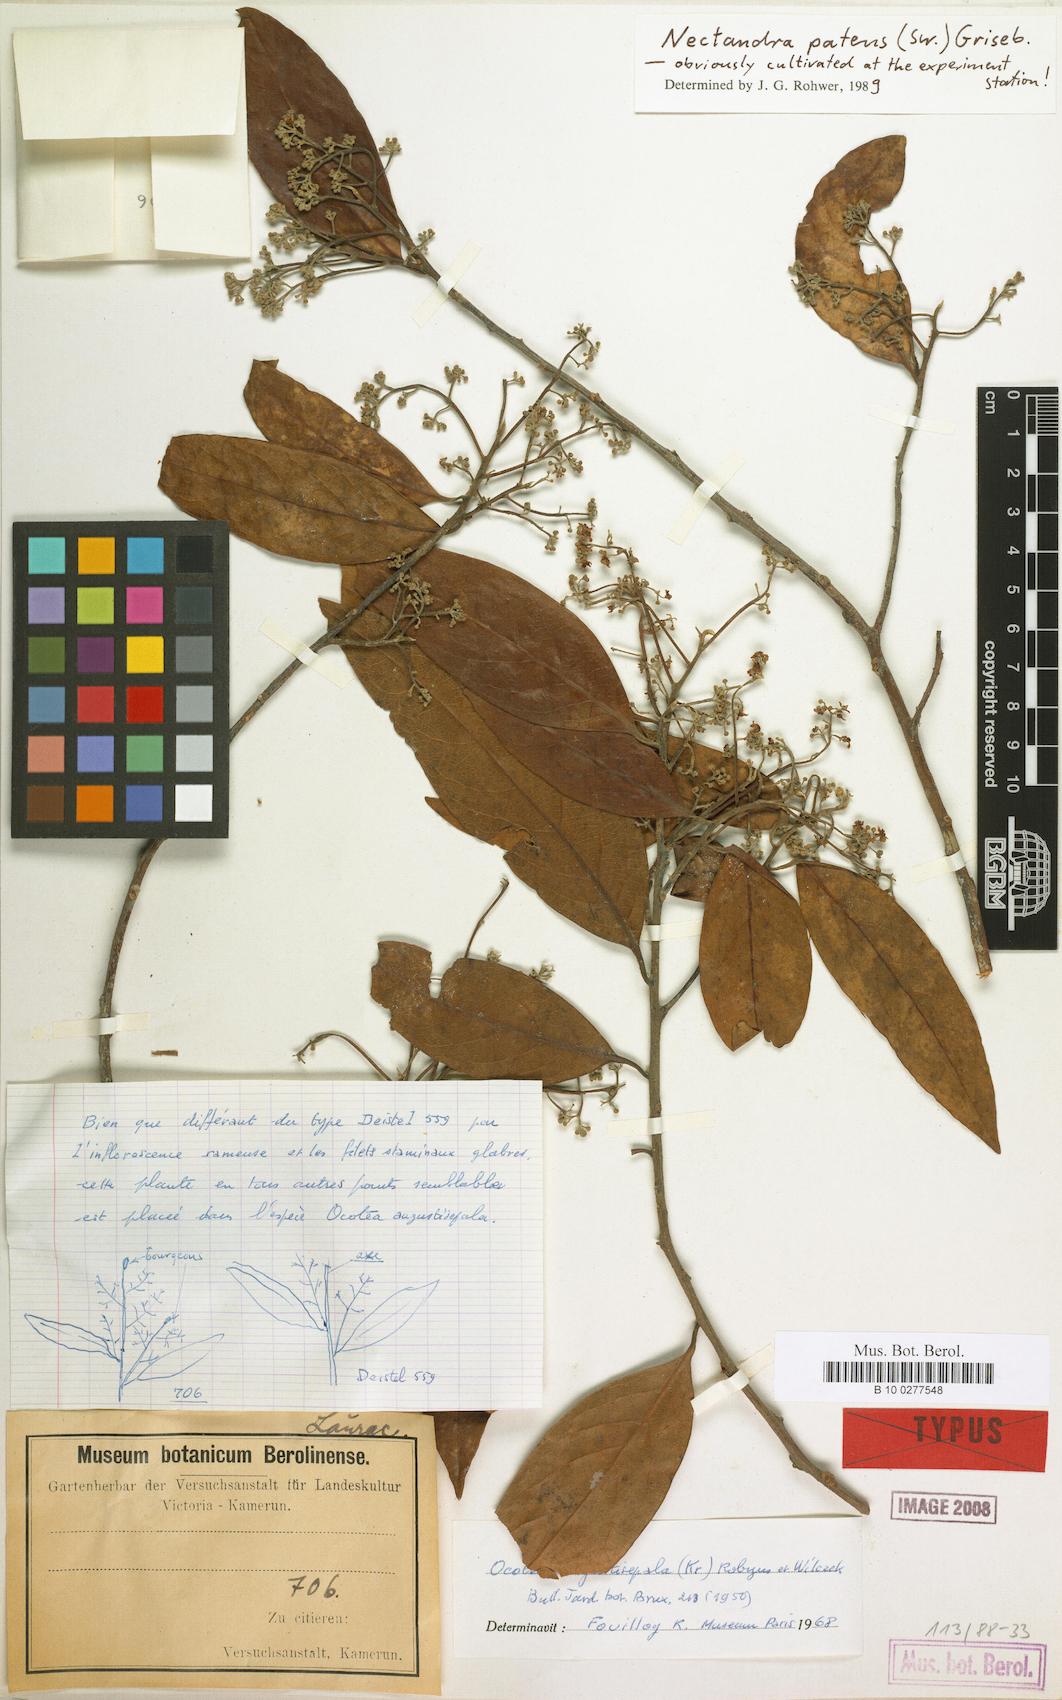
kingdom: Plantae
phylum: Tracheophyta
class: Magnoliopsida
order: Laurales
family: Lauraceae
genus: Damburneya
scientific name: Damburneya patens
